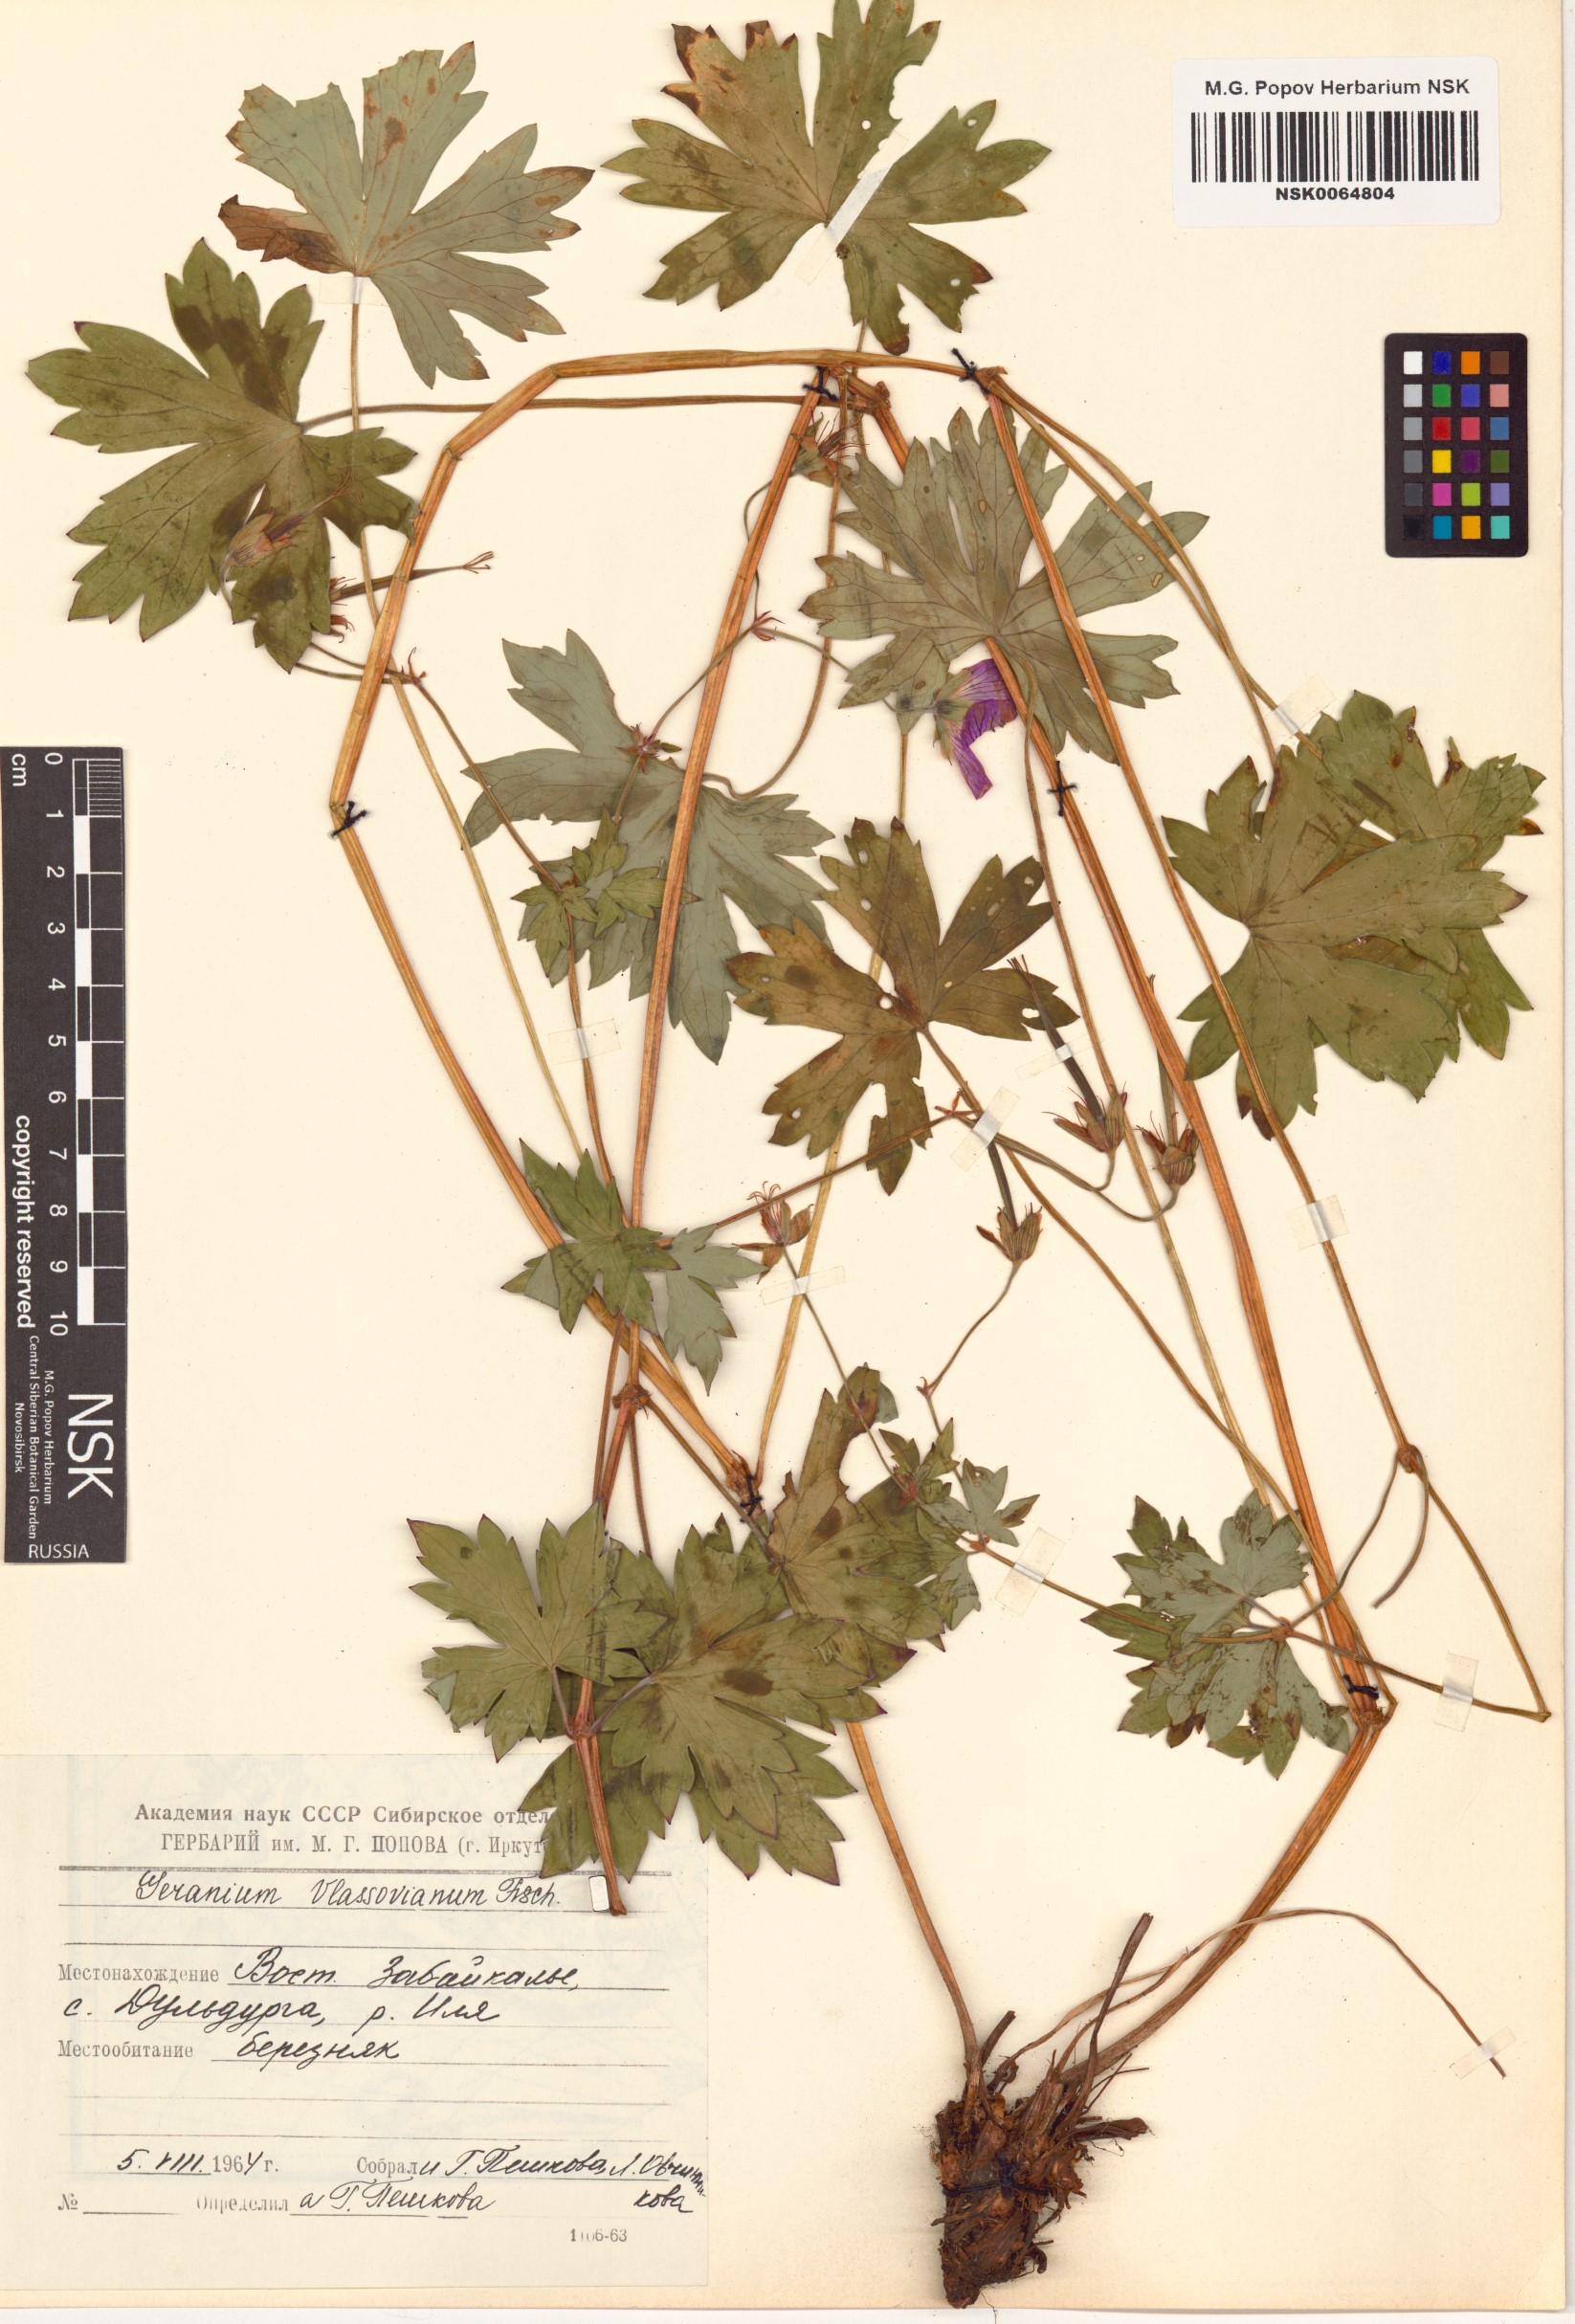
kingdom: Plantae
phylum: Tracheophyta
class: Magnoliopsida
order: Geraniales
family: Geraniaceae
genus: Geranium
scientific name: Geranium wlassovianum
